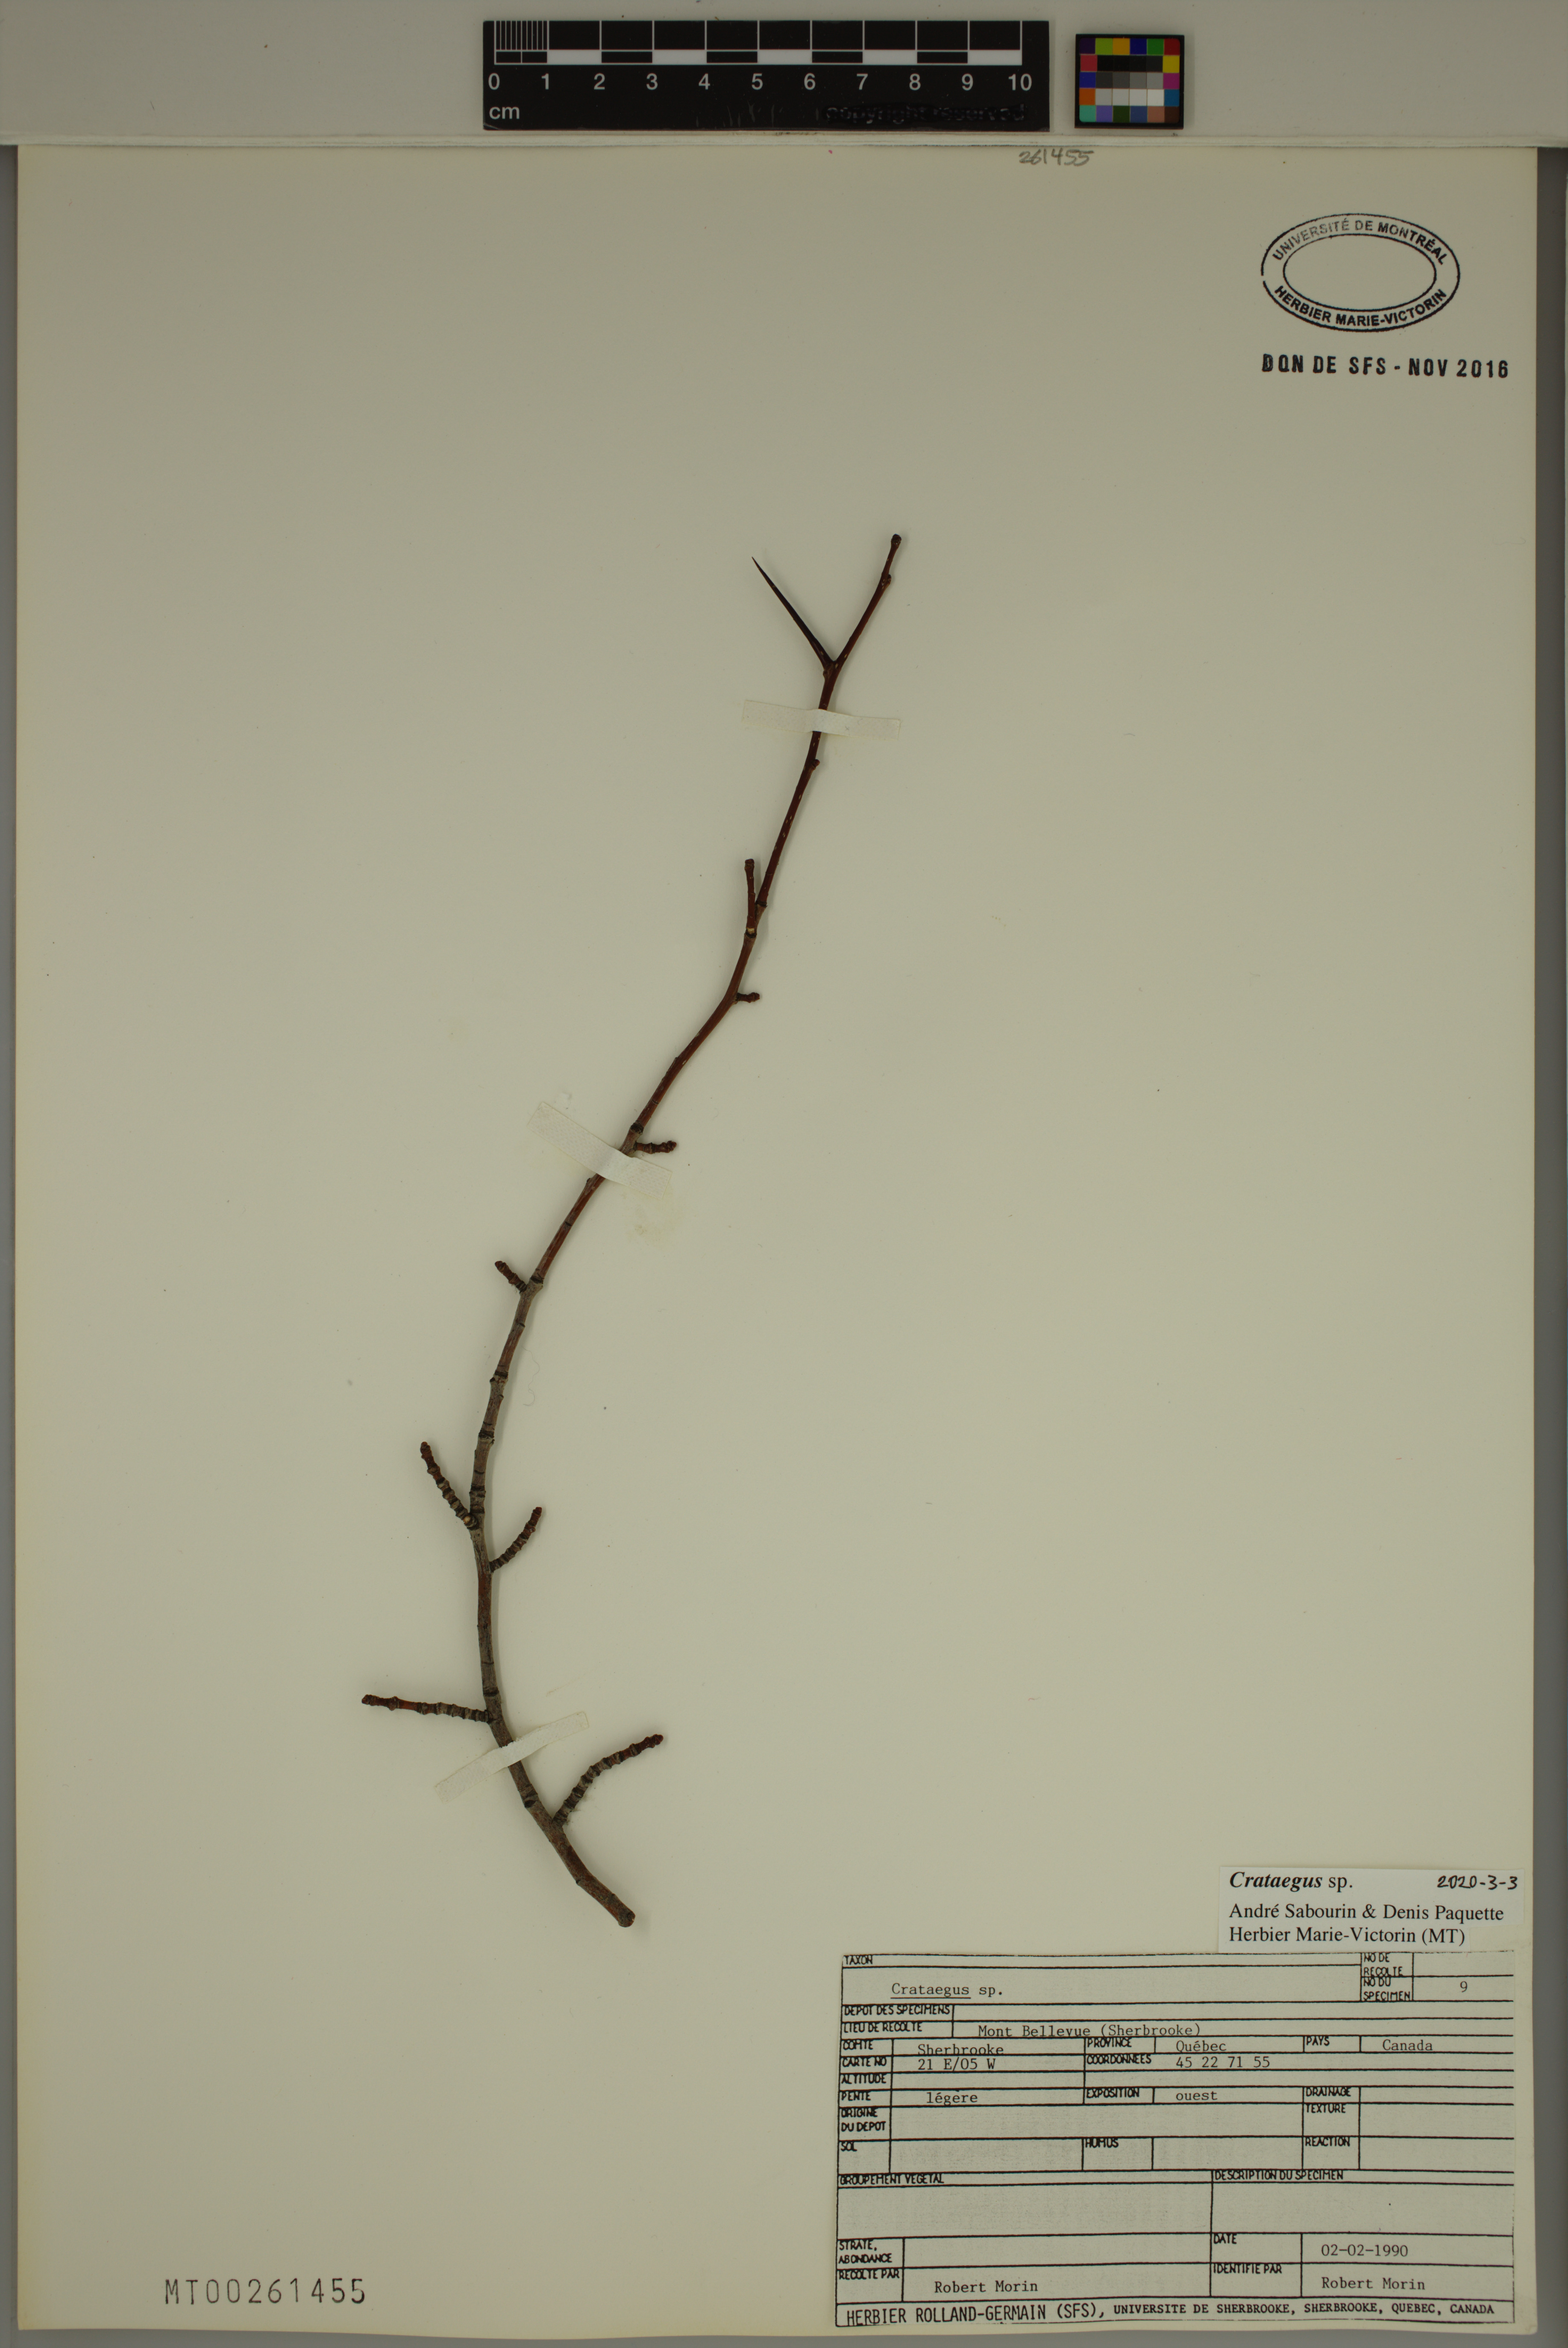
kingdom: Plantae
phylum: Tracheophyta
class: Magnoliopsida
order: Rosales
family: Rosaceae
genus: Crataegus
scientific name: Crataegus
